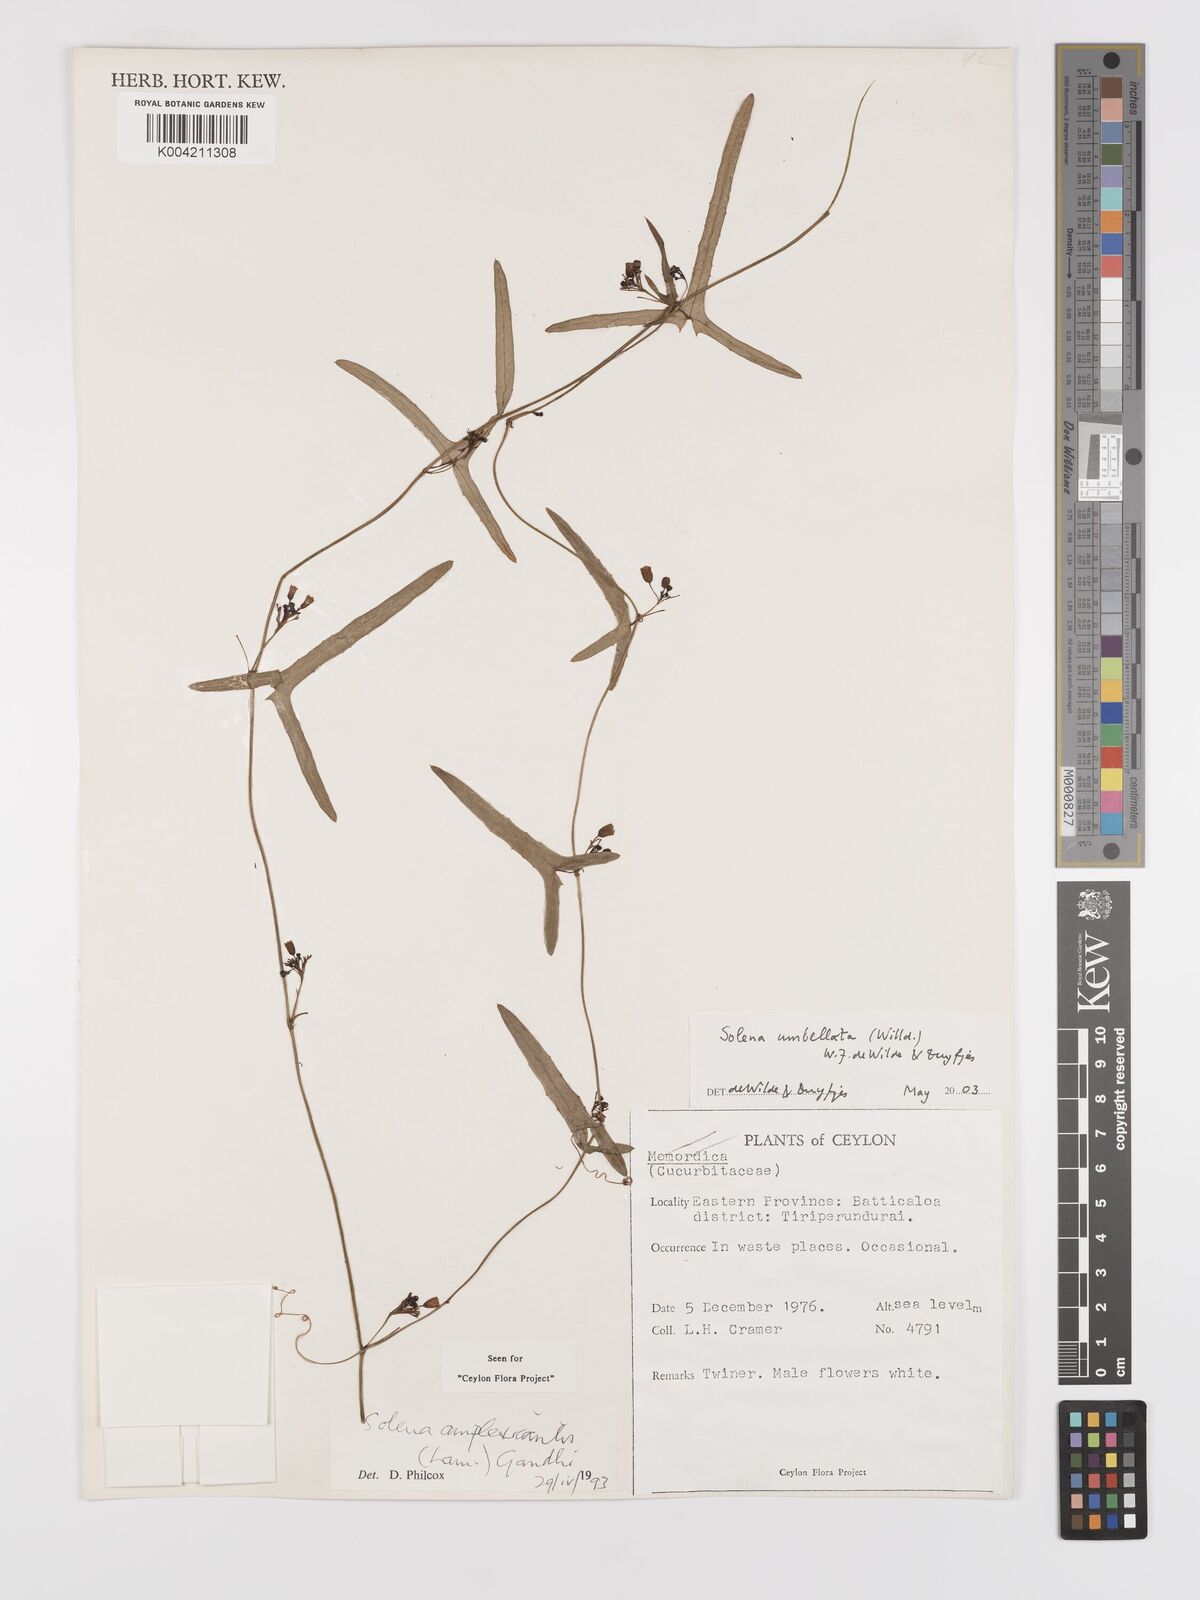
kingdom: Plantae
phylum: Tracheophyta
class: Magnoliopsida
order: Cucurbitales
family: Cucurbitaceae
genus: Solena
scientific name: Solena umbellata
